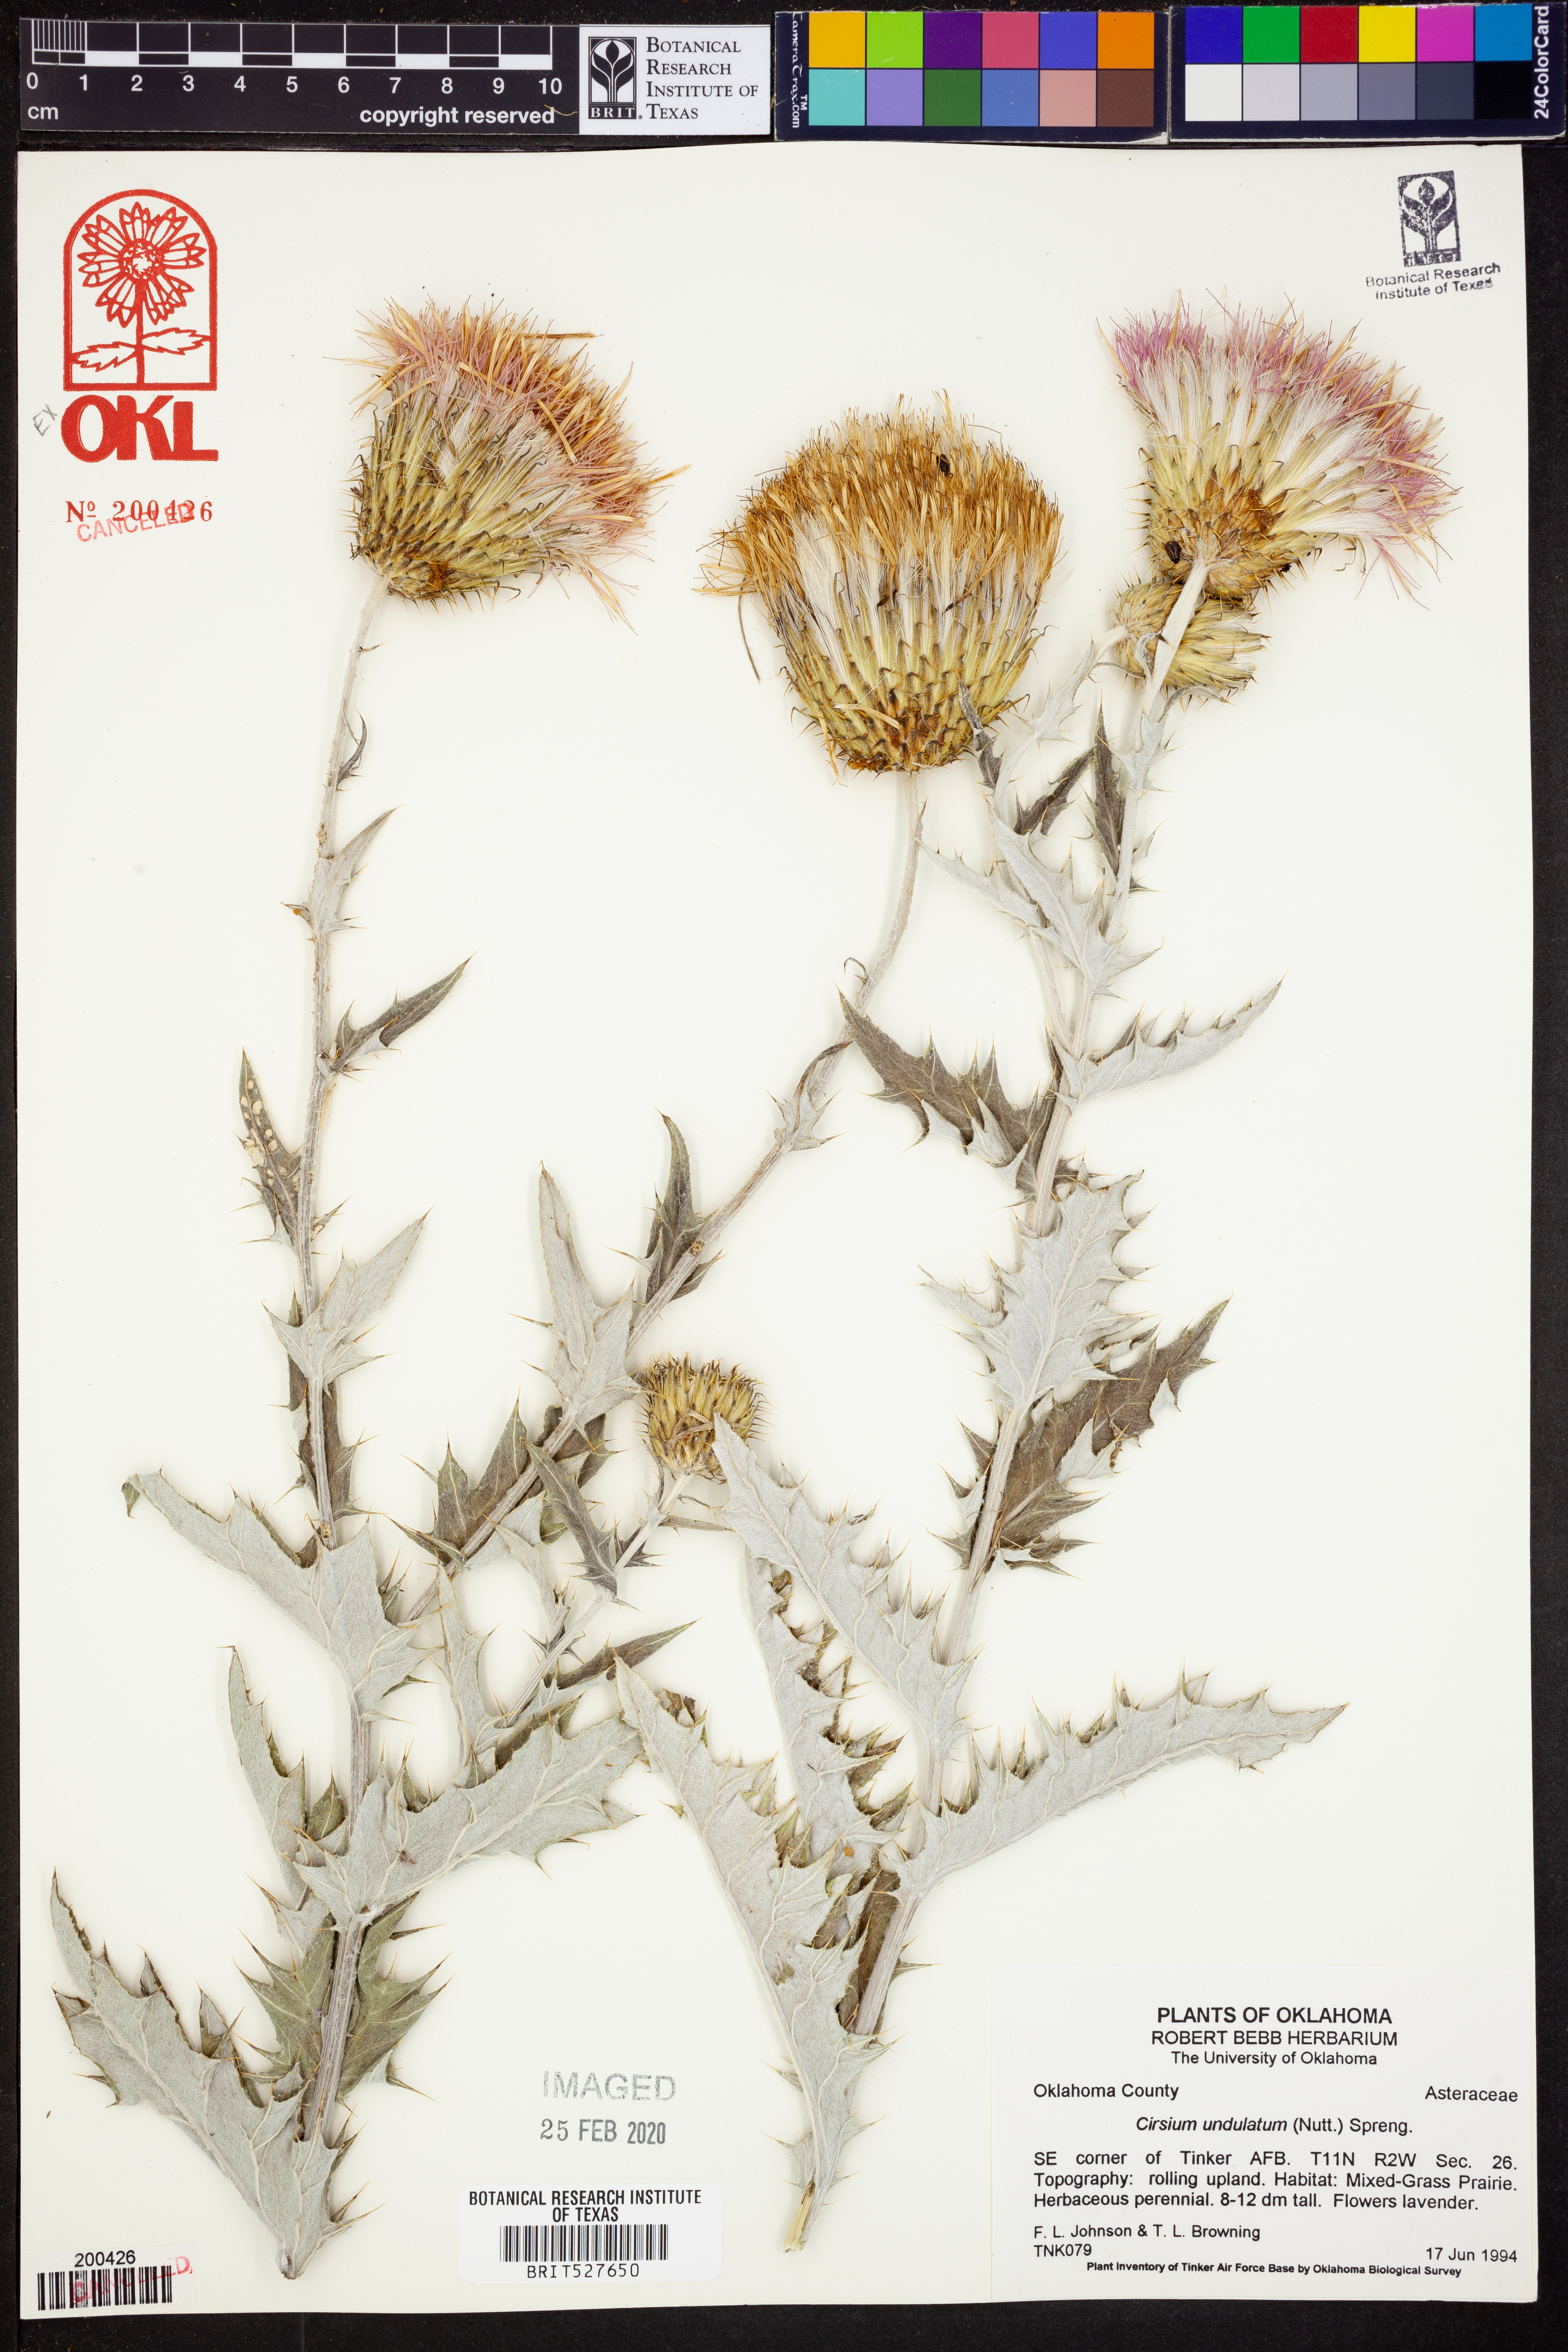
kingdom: Plantae
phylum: Tracheophyta
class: Magnoliopsida
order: Asterales
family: Asteraceae
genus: Cirsium
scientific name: Cirsium undulatum
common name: Pasture thistle
